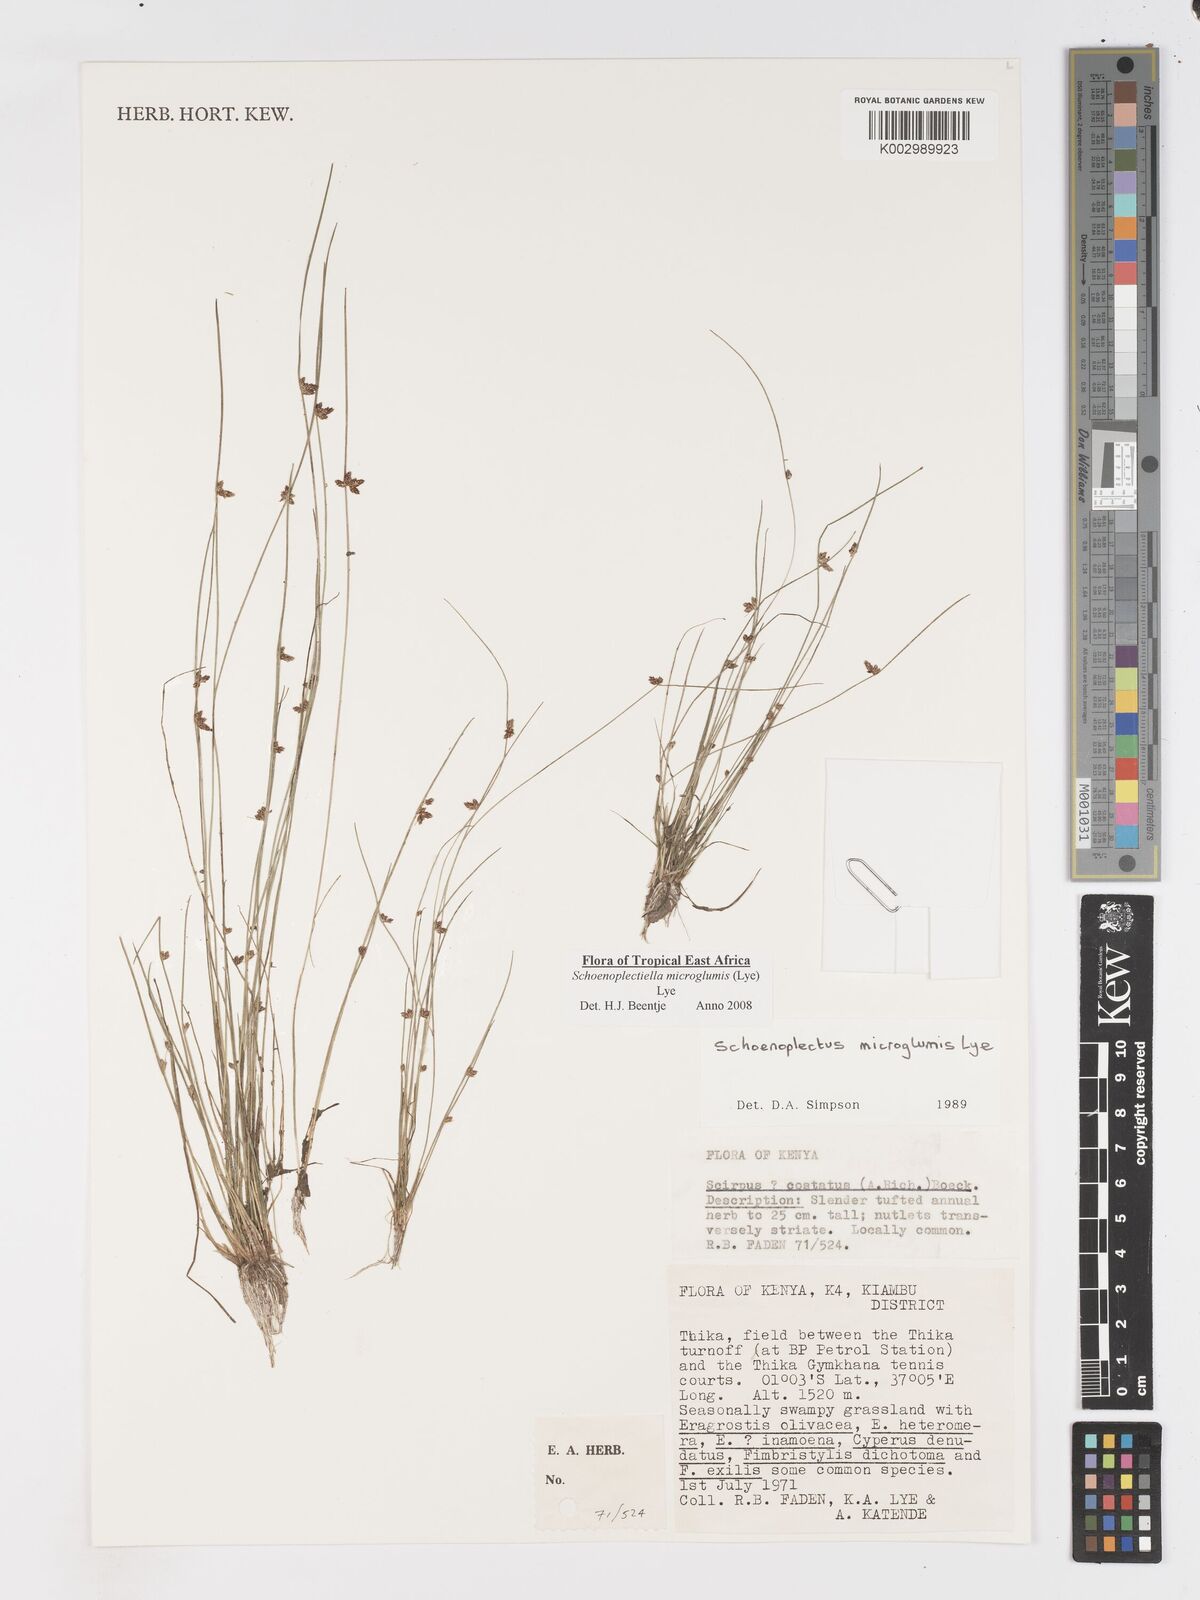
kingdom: Plantae
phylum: Tracheophyta
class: Liliopsida
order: Poales
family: Cyperaceae
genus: Schoenoplectiella
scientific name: Schoenoplectiella microglumis
